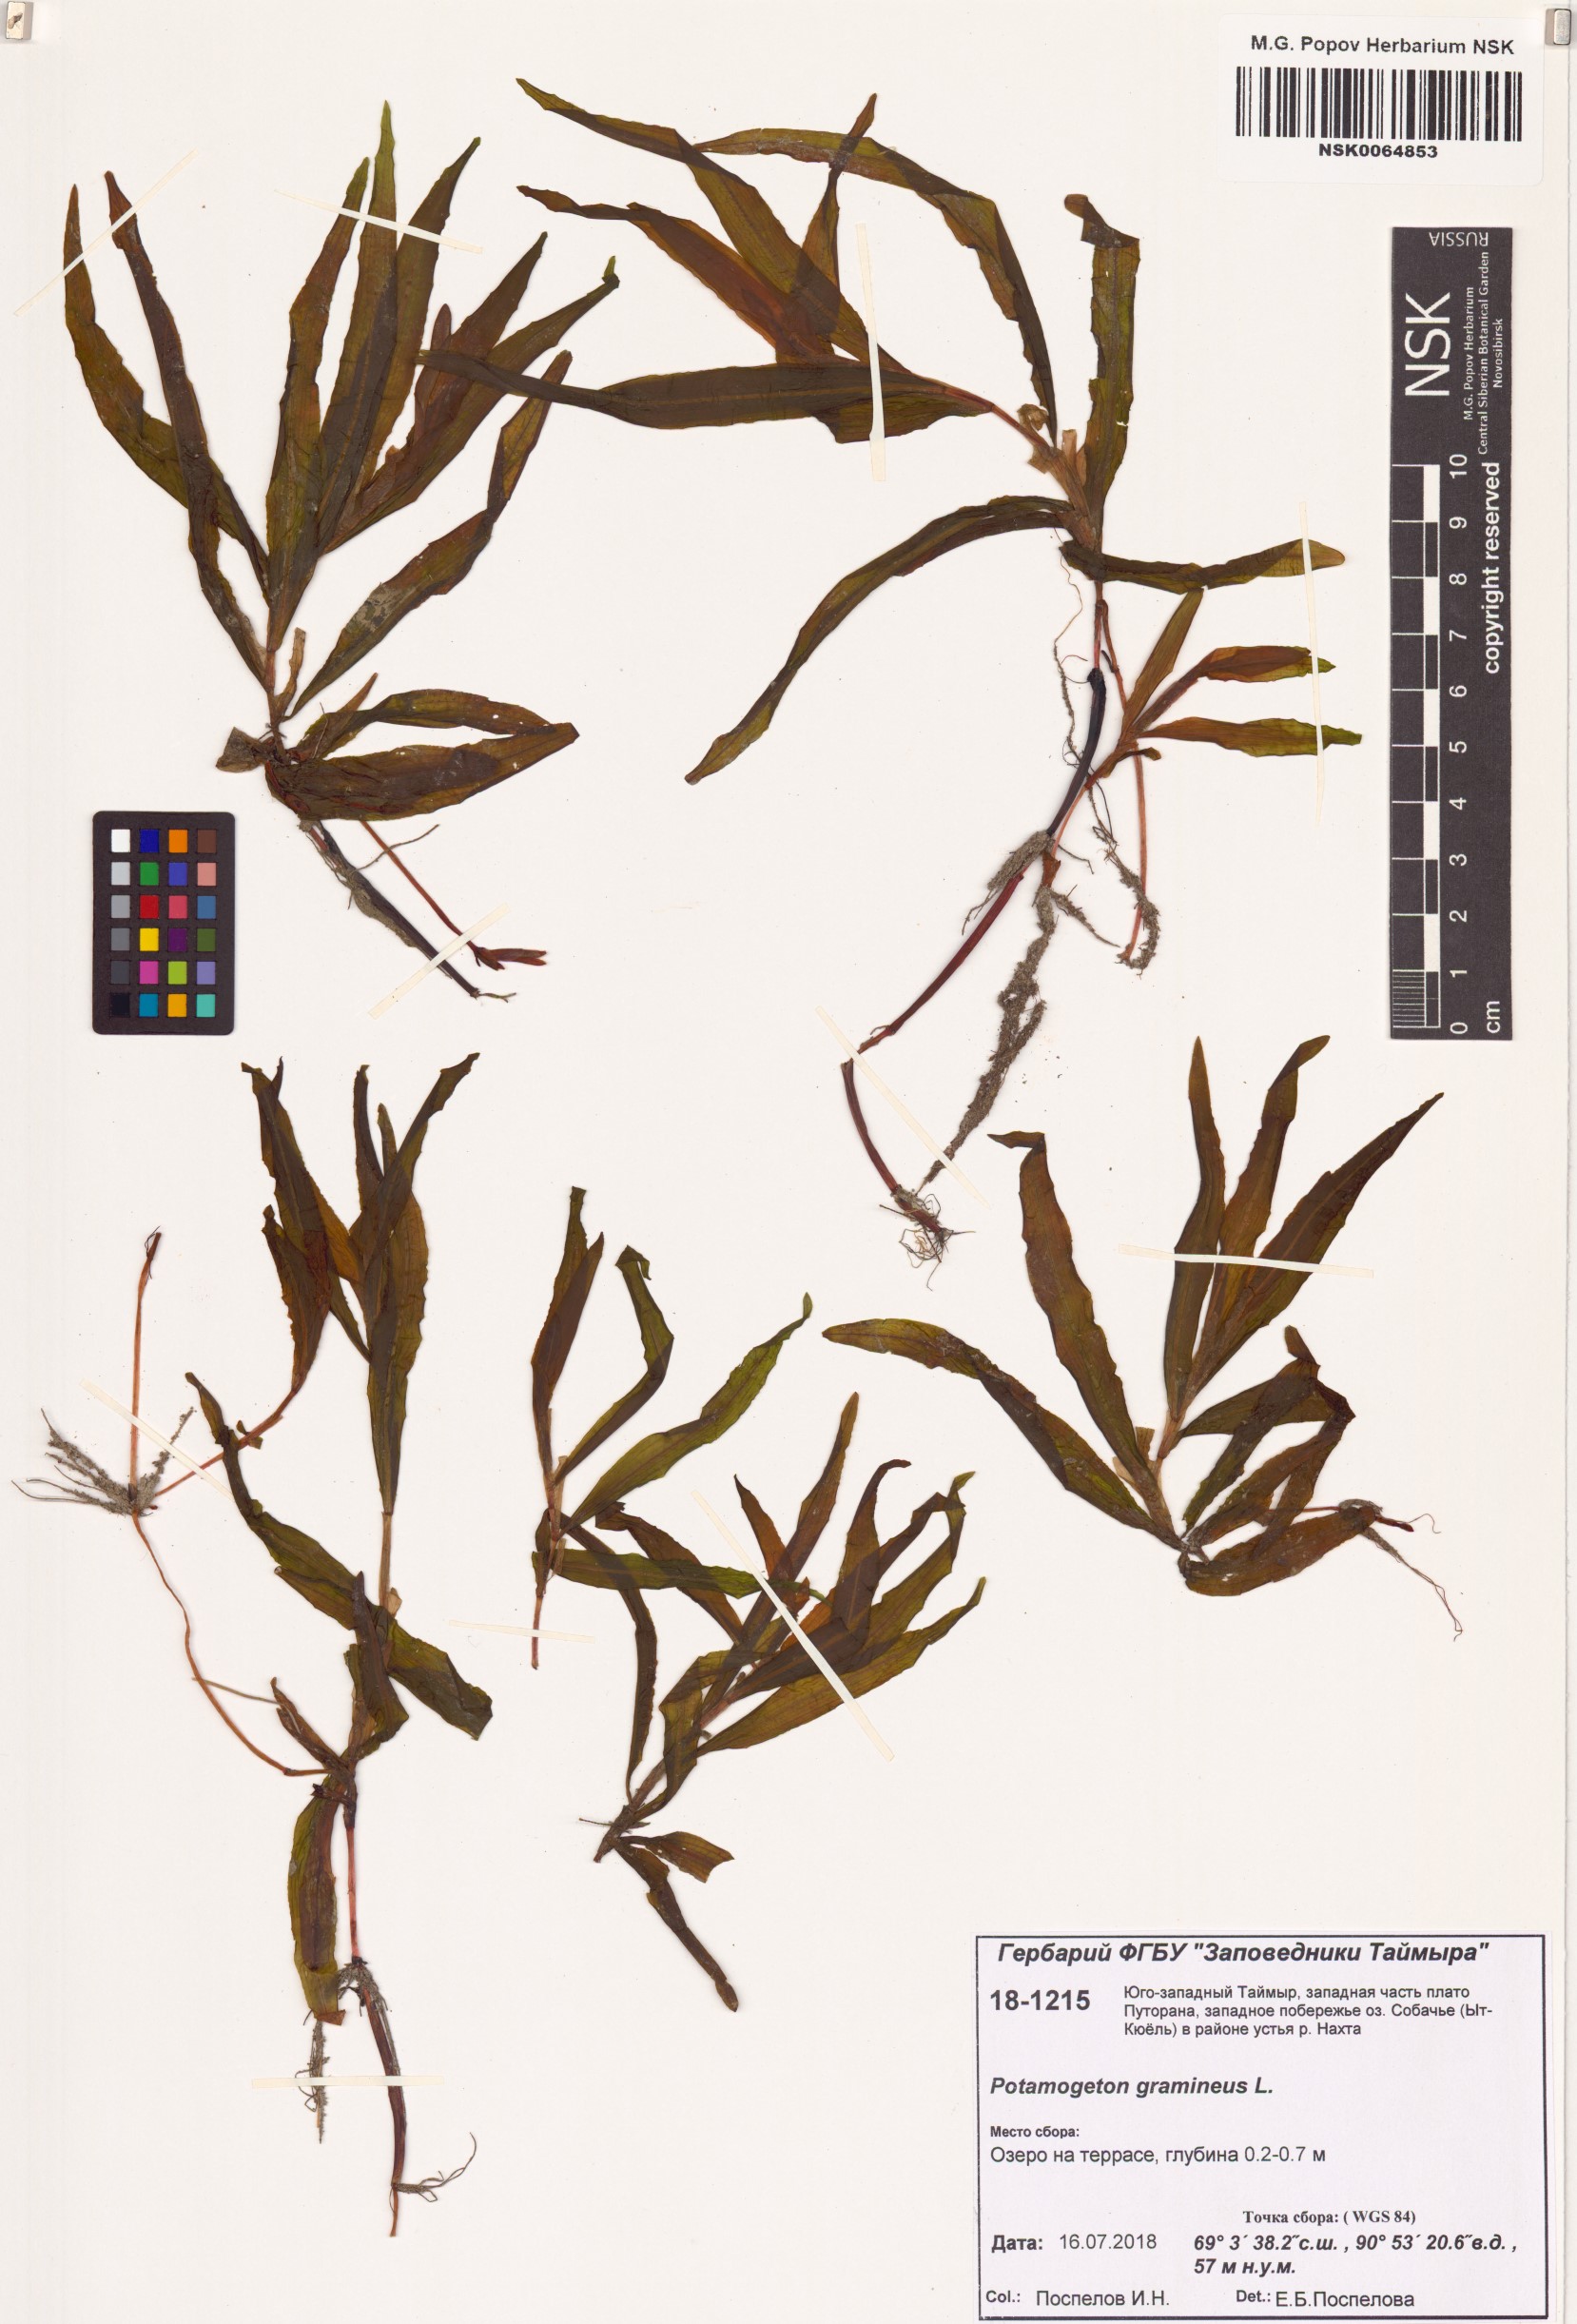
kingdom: Plantae
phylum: Tracheophyta
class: Liliopsida
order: Alismatales
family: Potamogetonaceae
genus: Potamogeton
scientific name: Potamogeton gramineus
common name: Various-leaved pondweed
